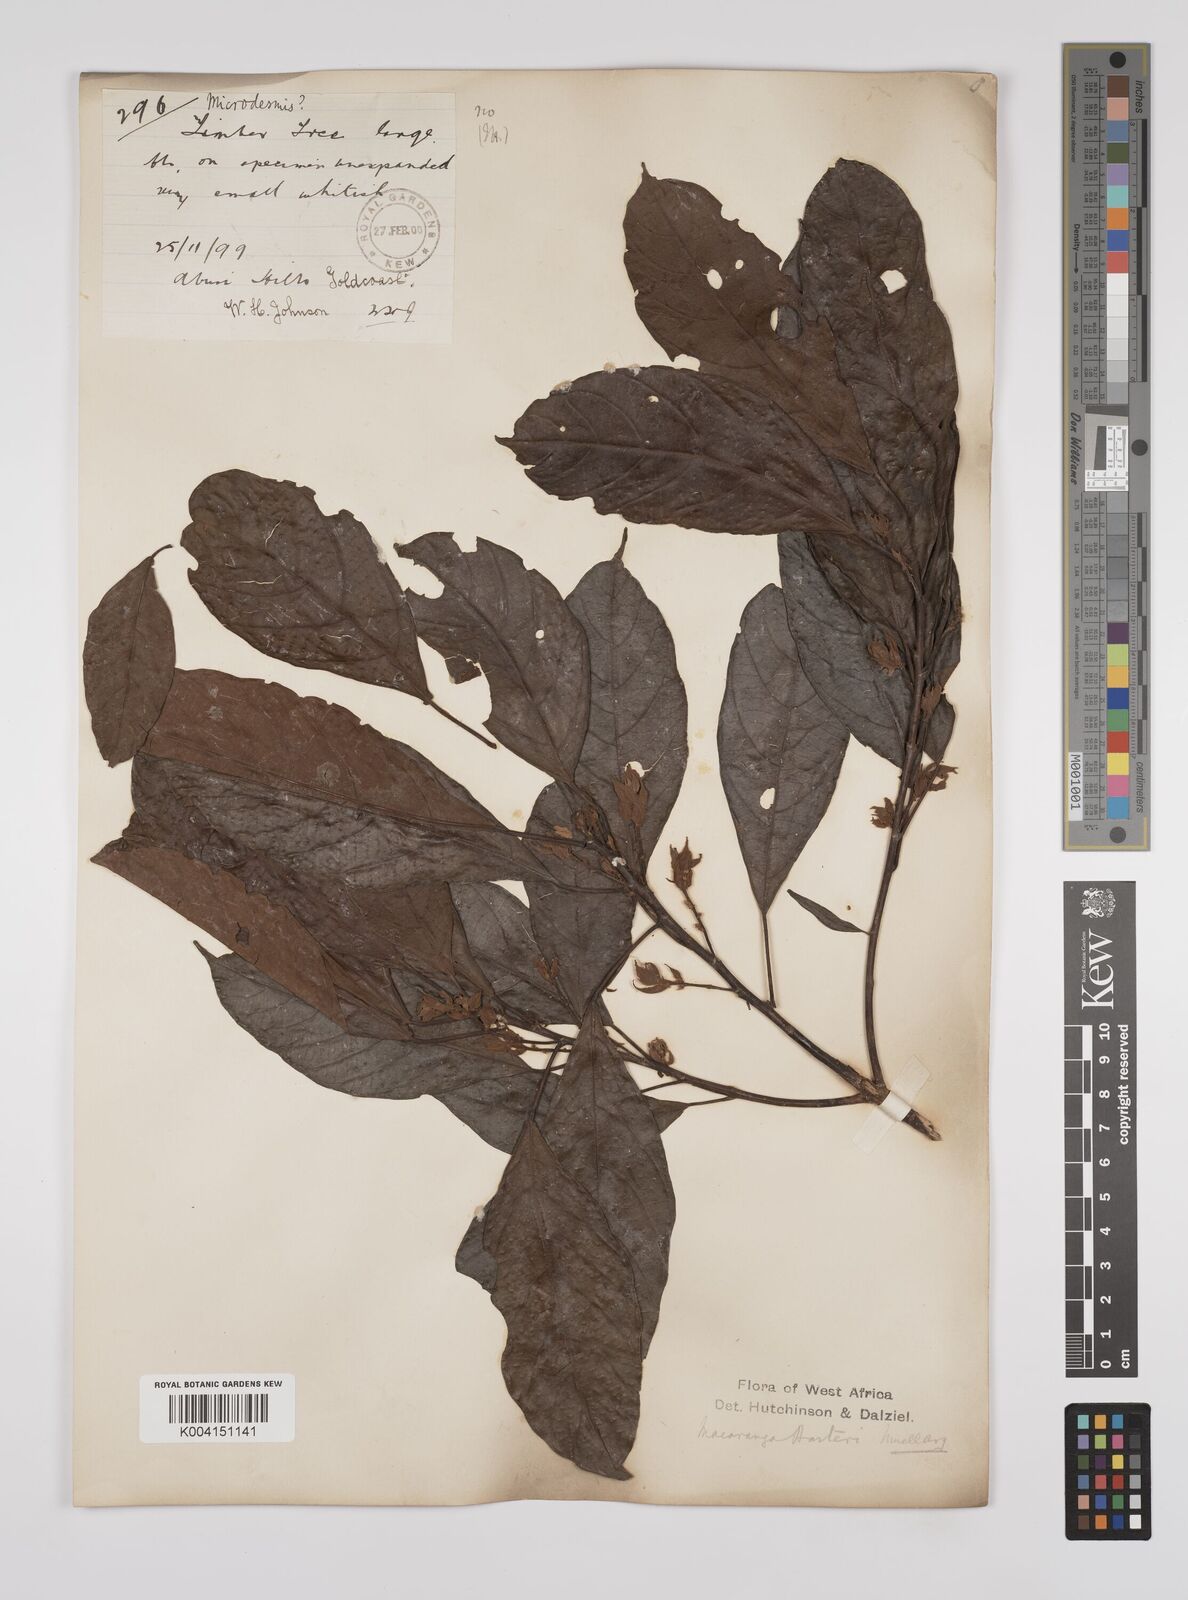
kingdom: Plantae
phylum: Tracheophyta
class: Magnoliopsida
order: Malpighiales
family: Euphorbiaceae
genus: Macaranga
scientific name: Macaranga barteri
